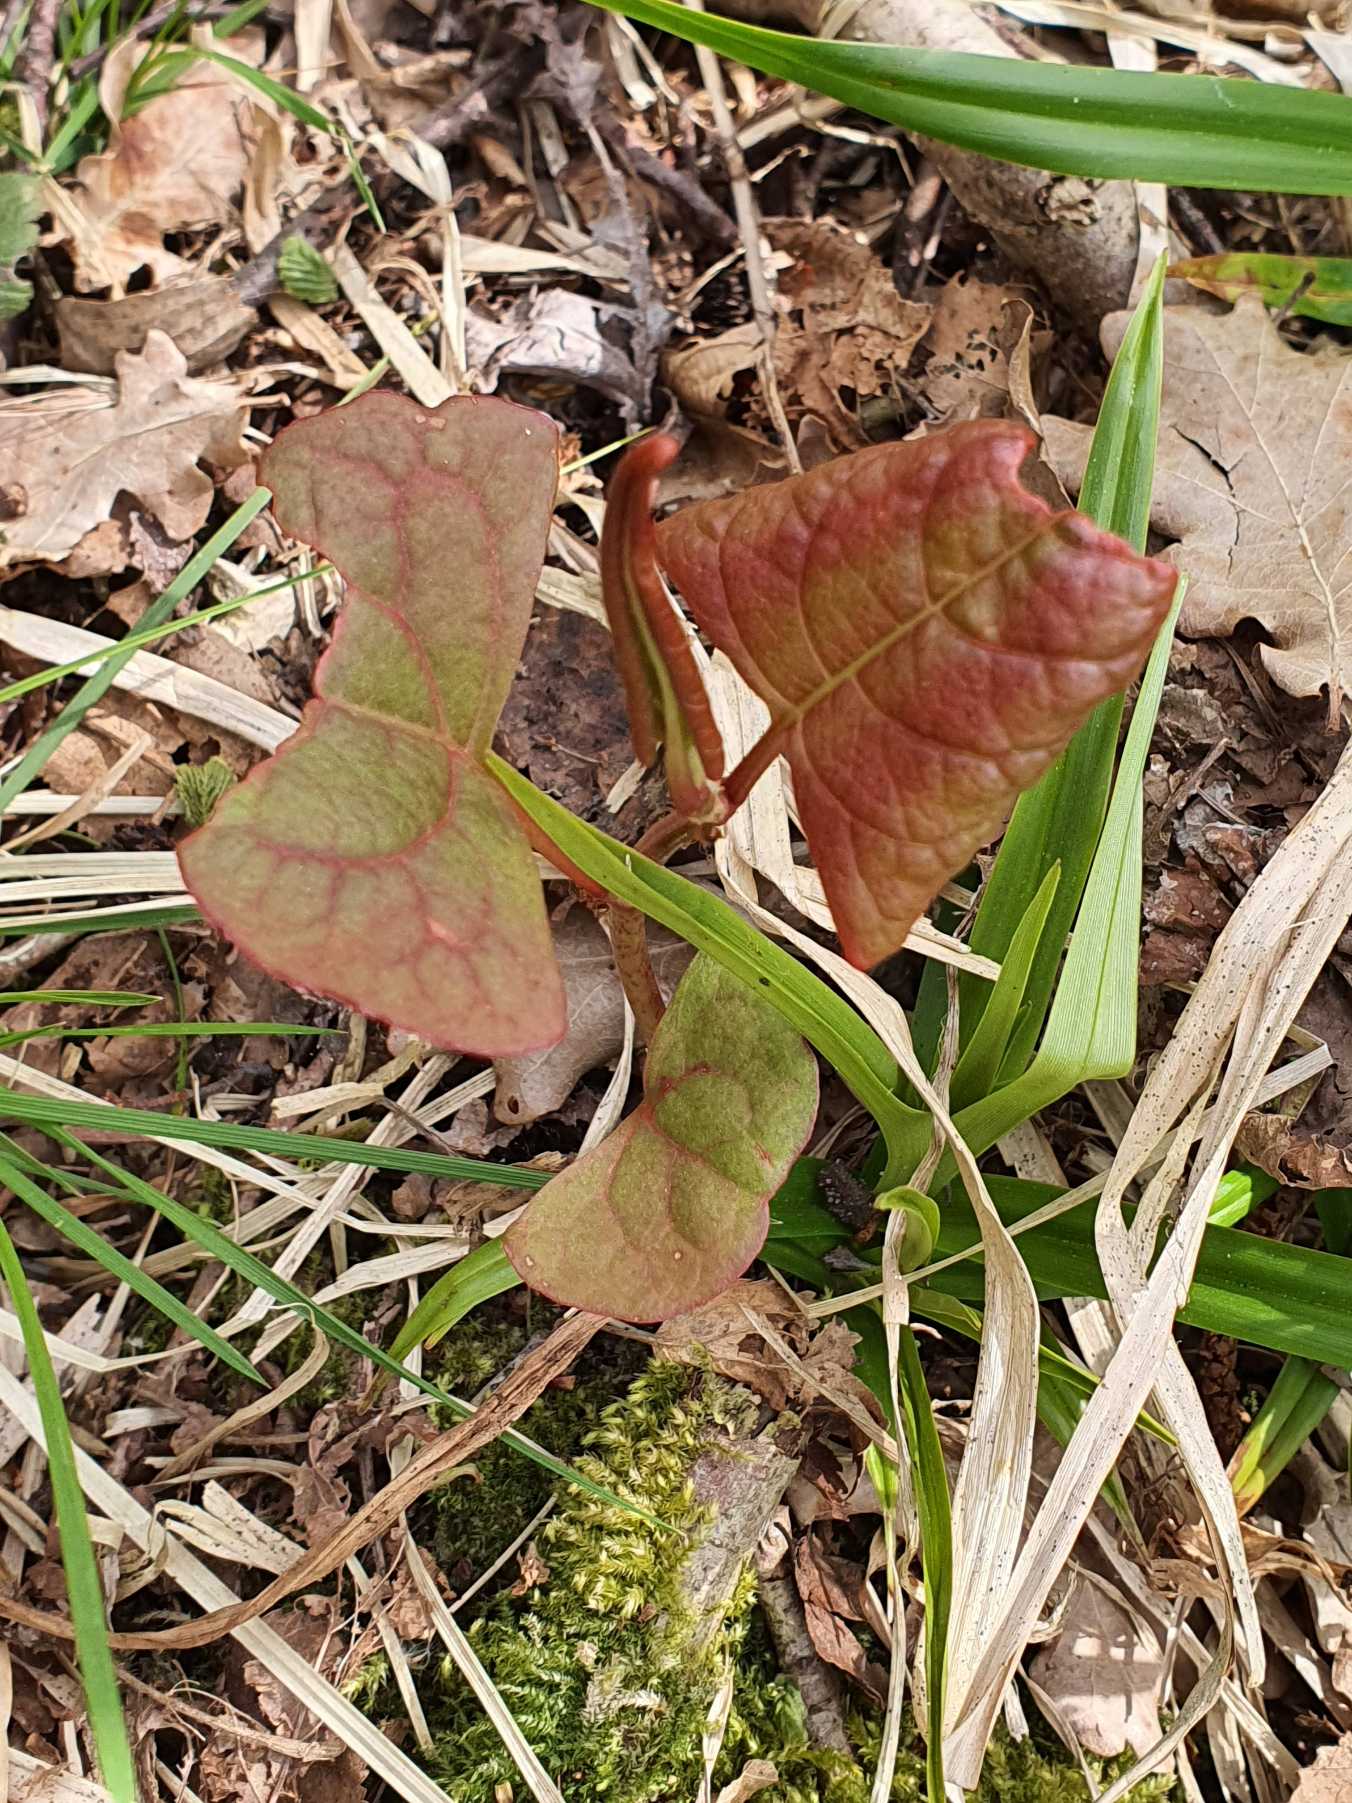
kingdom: Plantae
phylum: Tracheophyta
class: Magnoliopsida
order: Caryophyllales
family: Polygonaceae
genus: Reynoutria
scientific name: Reynoutria bohemica
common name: Hybrid-pileurt
